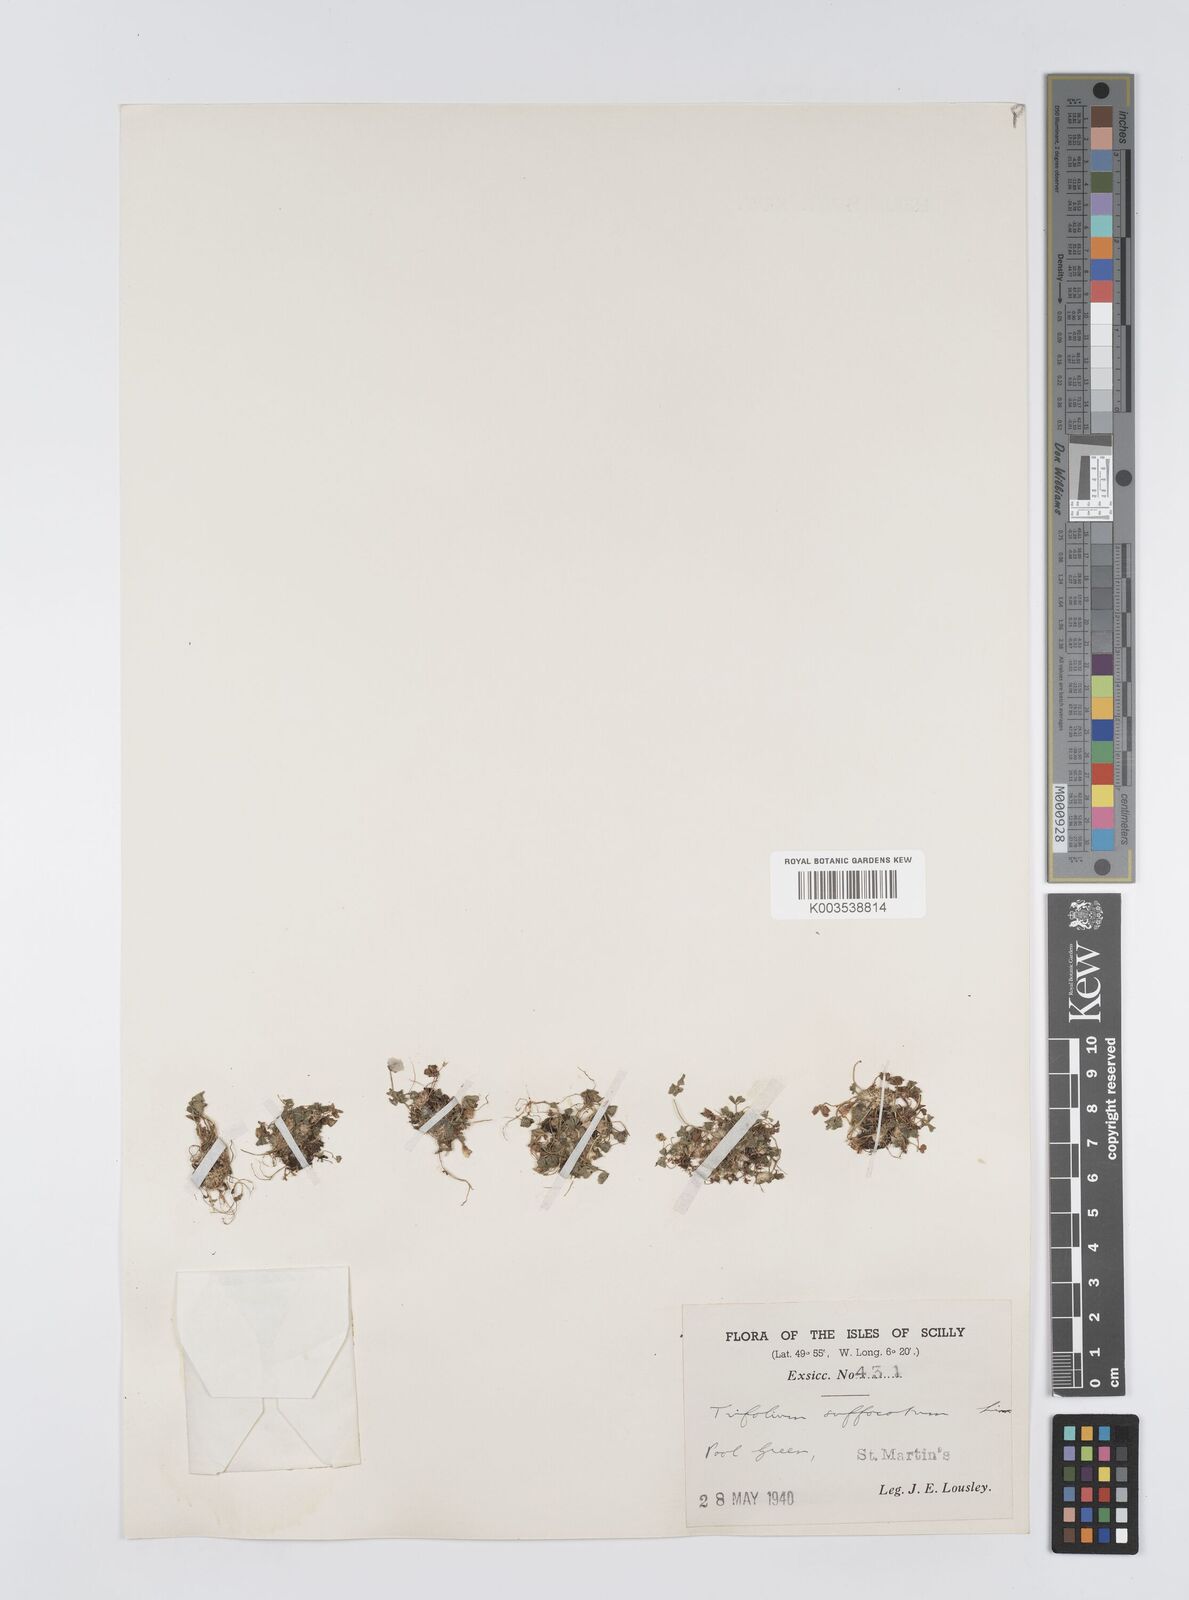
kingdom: Plantae
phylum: Tracheophyta
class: Magnoliopsida
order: Fabales
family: Fabaceae
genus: Trifolium
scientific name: Trifolium suffocatum
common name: Suffocated clover
